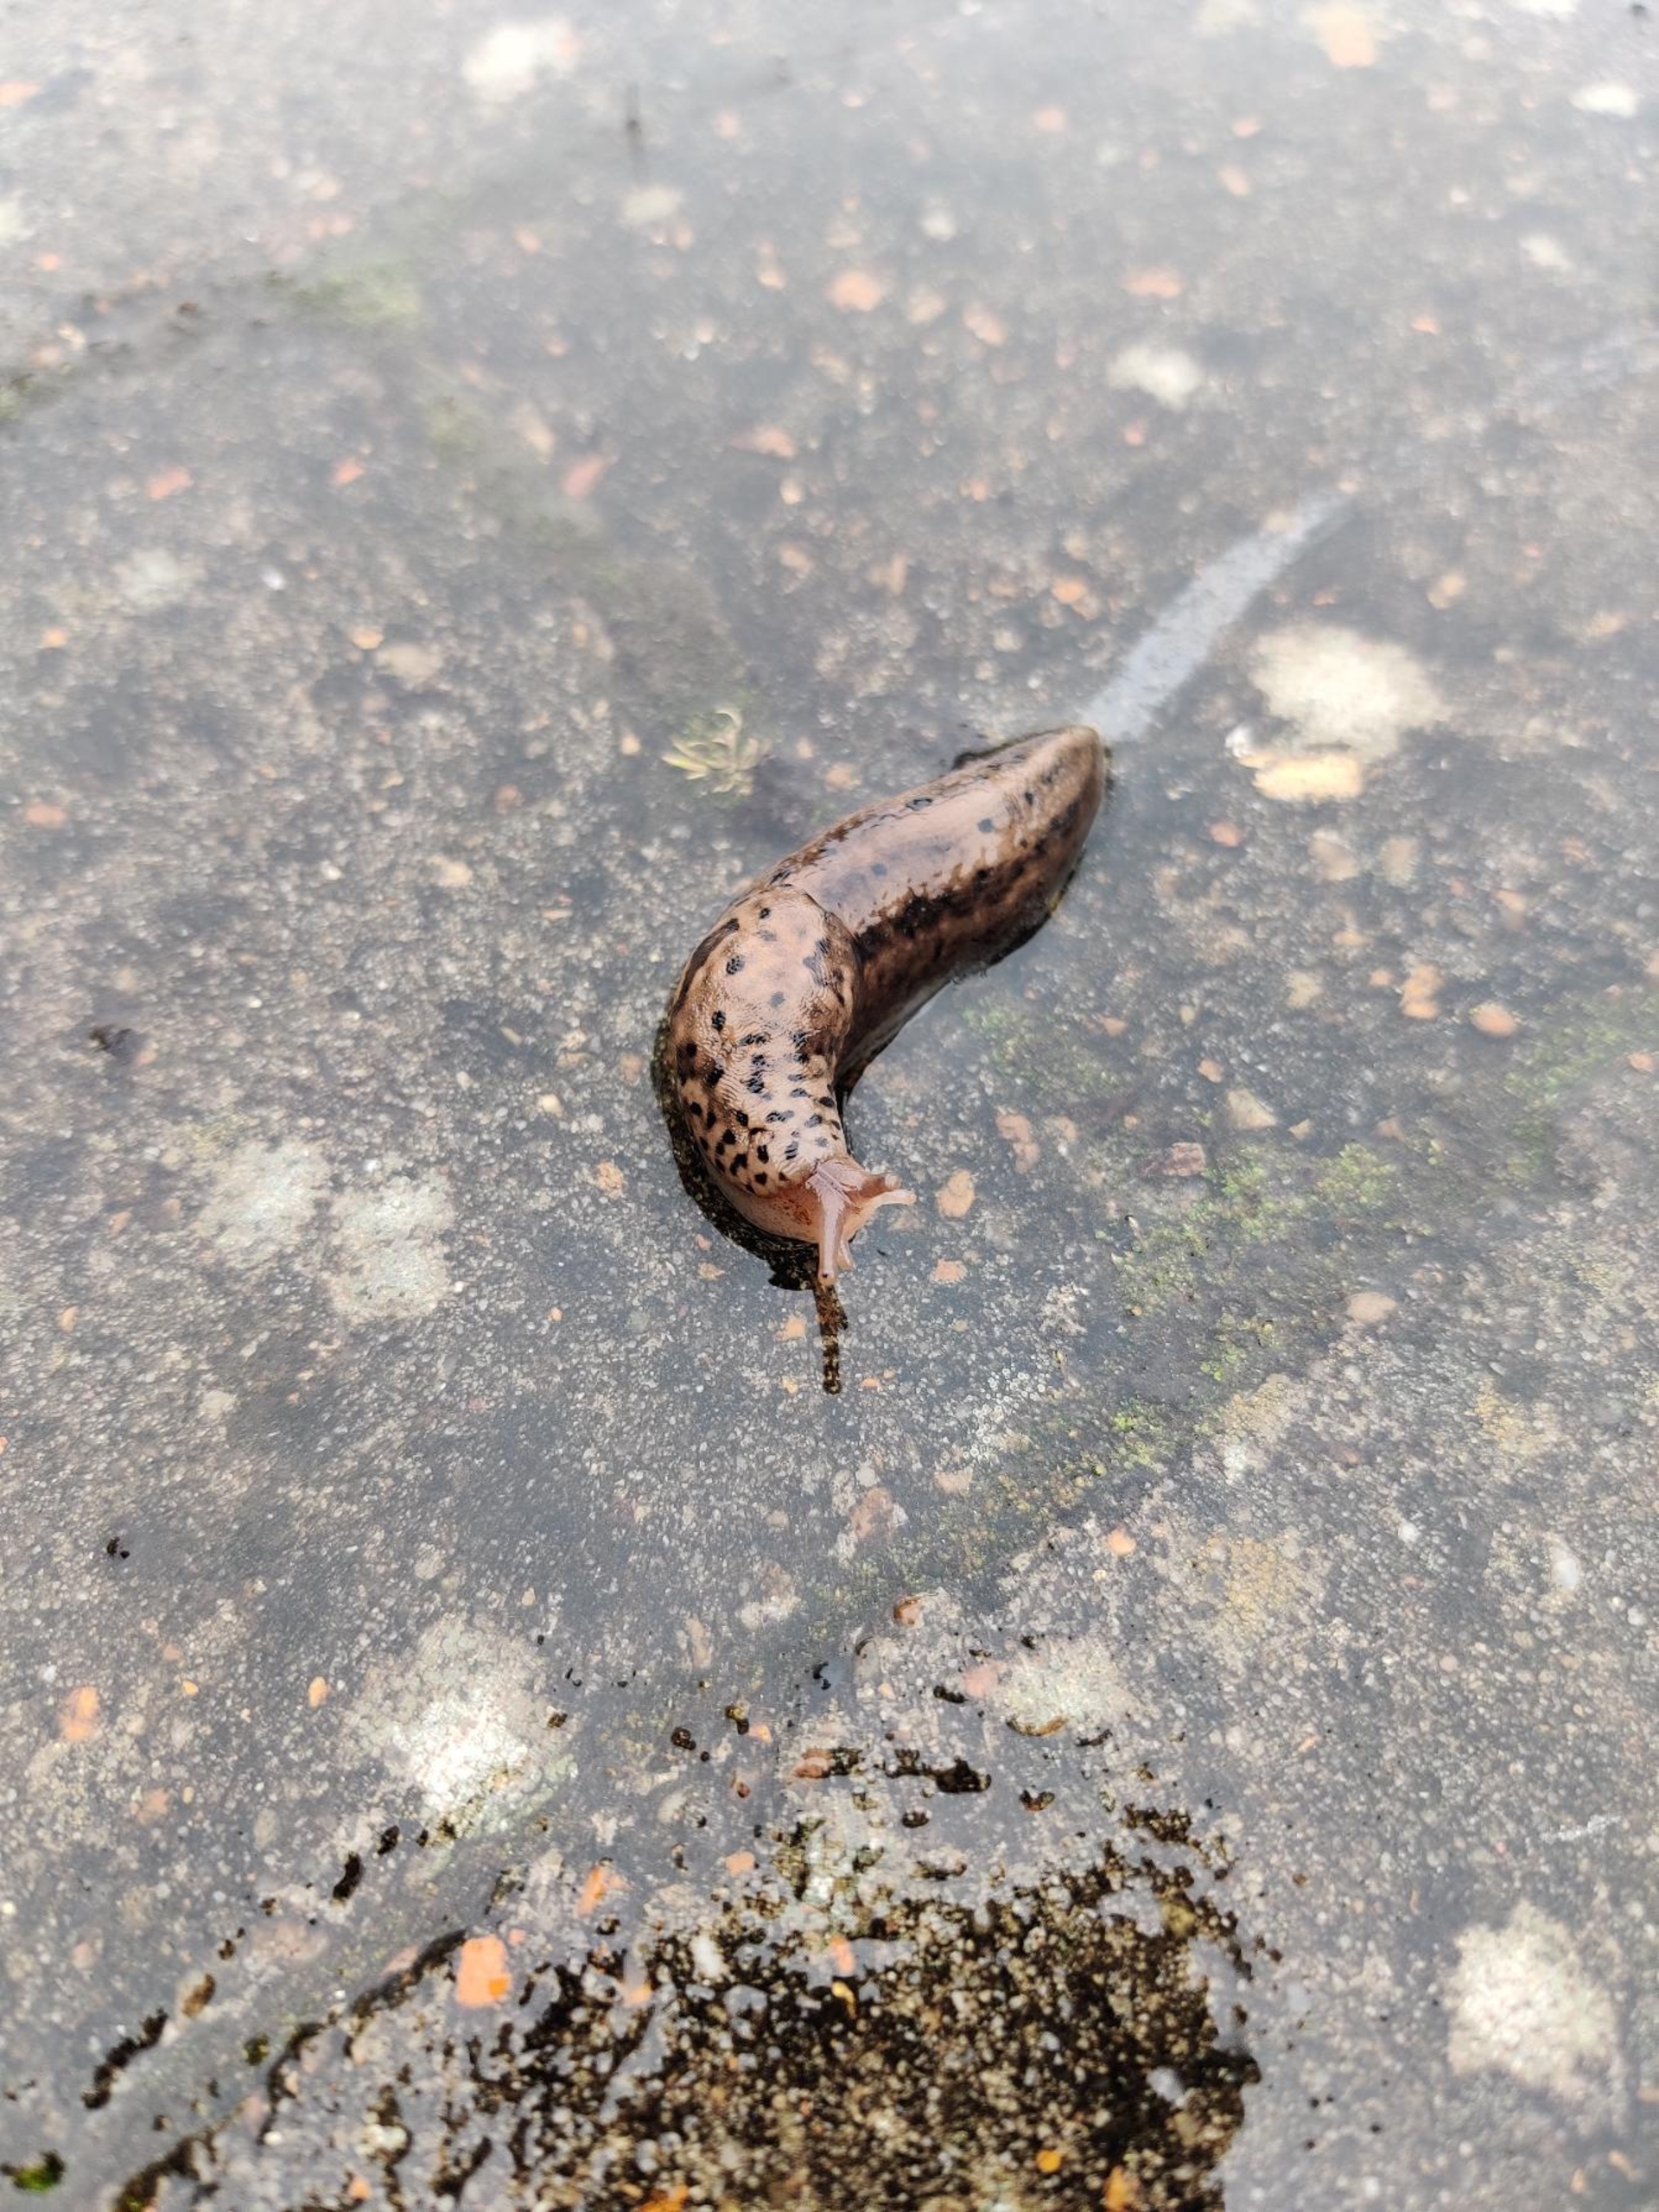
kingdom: Animalia
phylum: Mollusca
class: Gastropoda
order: Stylommatophora
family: Limacidae
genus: Limax
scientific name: Limax maximus
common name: Pantersnegl
